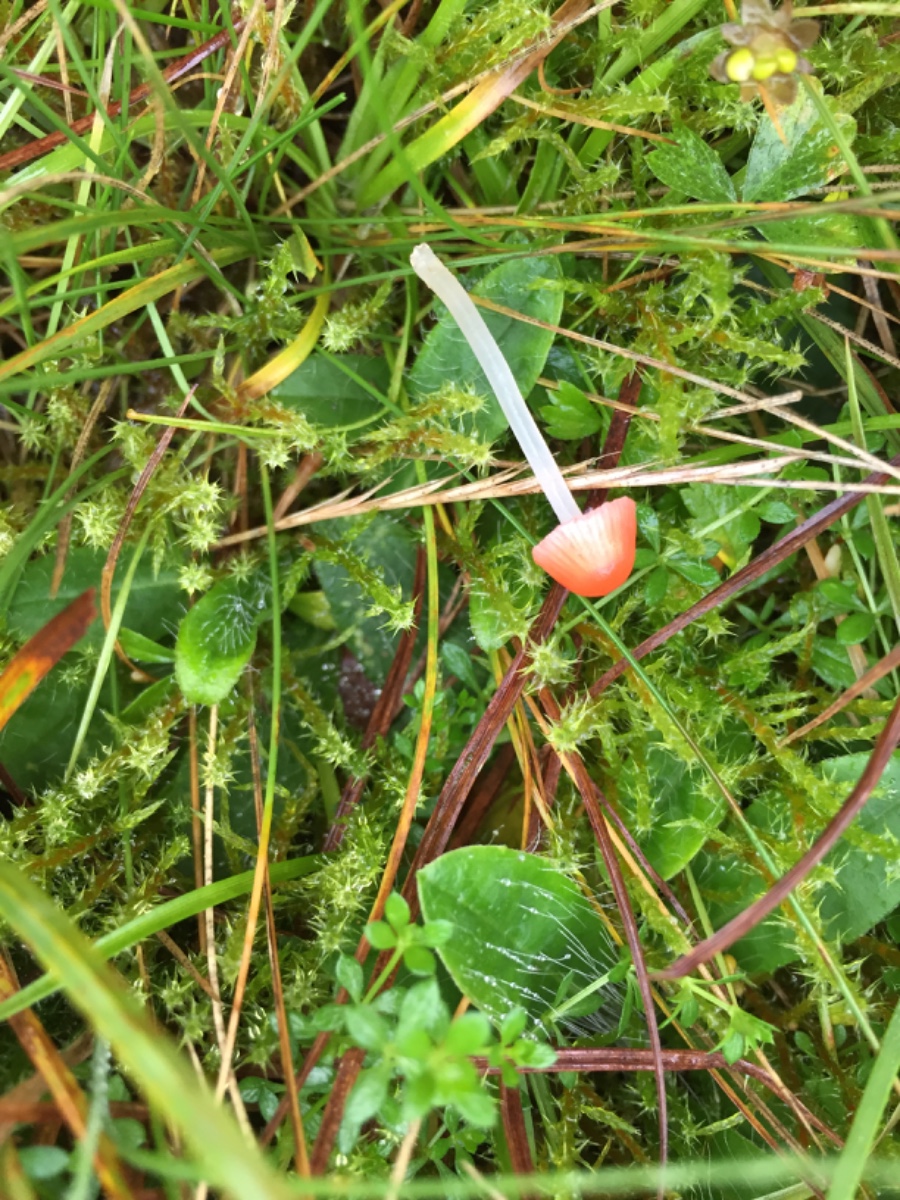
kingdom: Fungi
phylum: Basidiomycota
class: Agaricomycetes
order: Agaricales
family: Mycenaceae
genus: Atheniella
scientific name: Atheniella adonis
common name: rønnerød huesvamp
